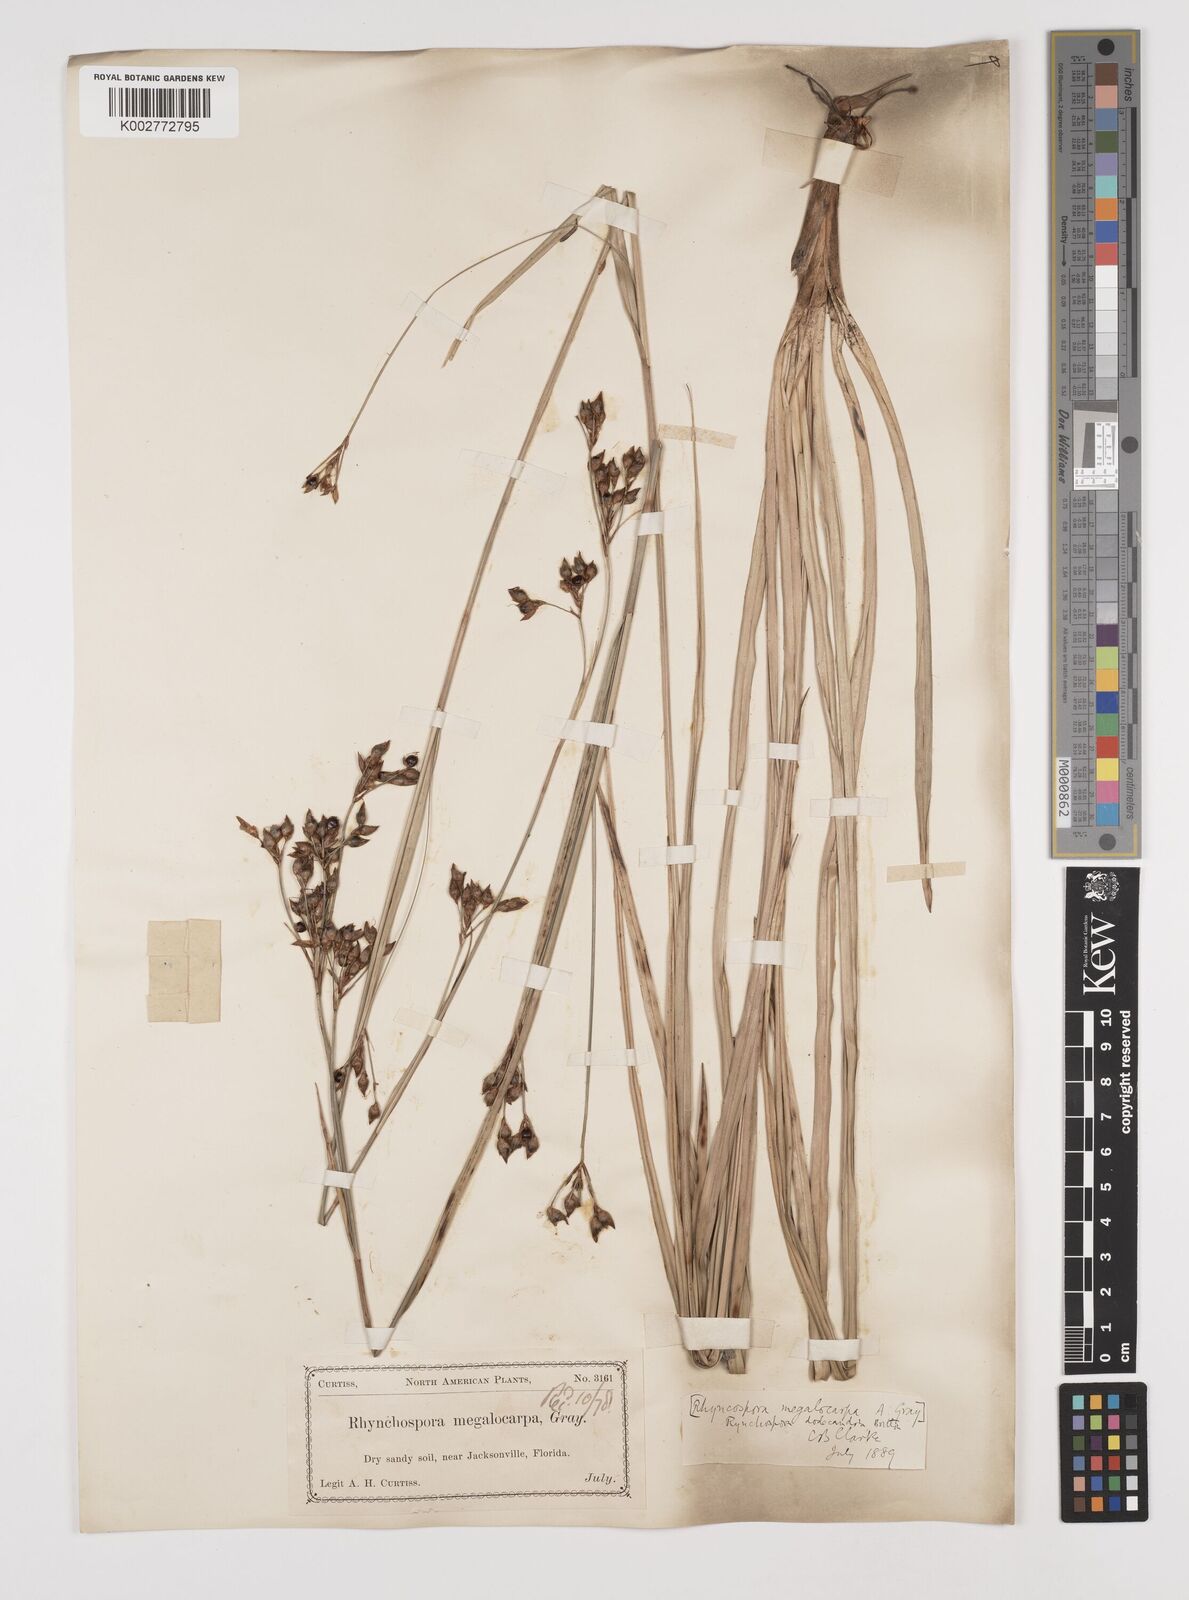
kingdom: Plantae
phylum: Tracheophyta
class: Liliopsida
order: Poales
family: Cyperaceae
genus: Rhynchospora
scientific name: Rhynchospora megalocarpa
